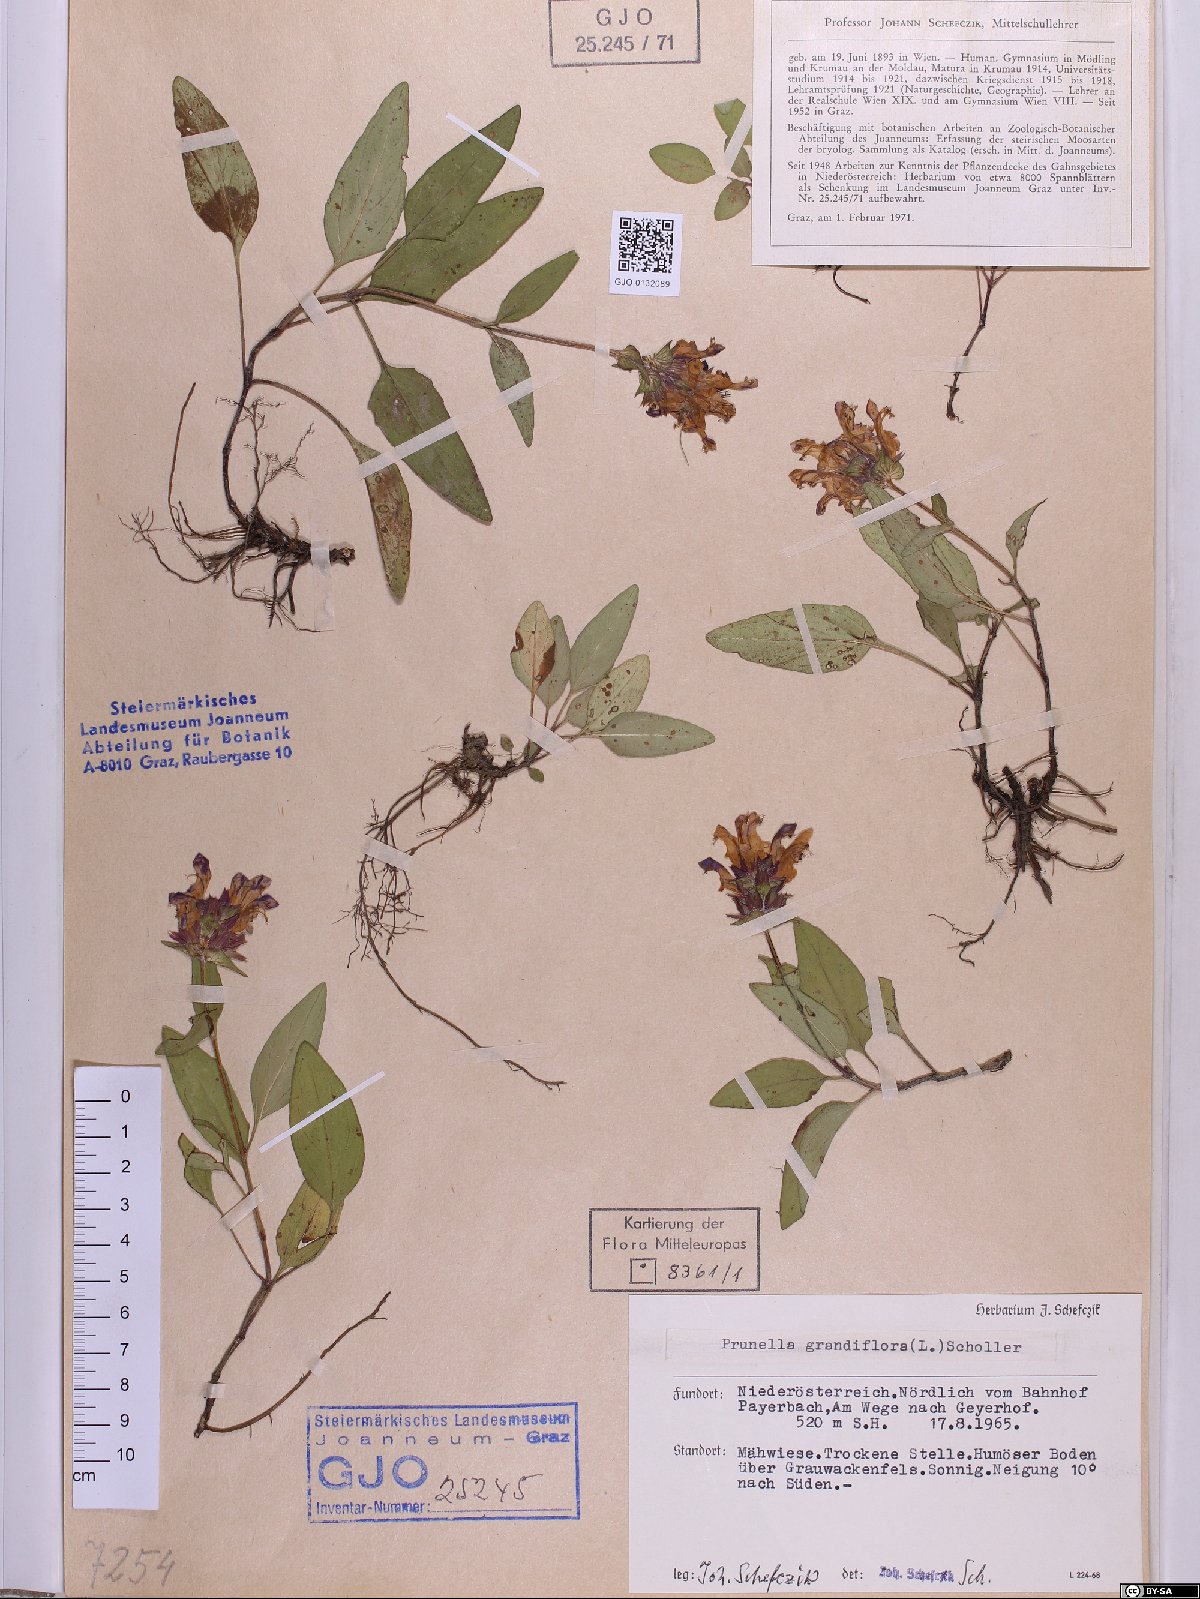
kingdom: Plantae
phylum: Tracheophyta
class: Magnoliopsida
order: Lamiales
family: Lamiaceae
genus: Prunella
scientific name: Prunella grandiflora
